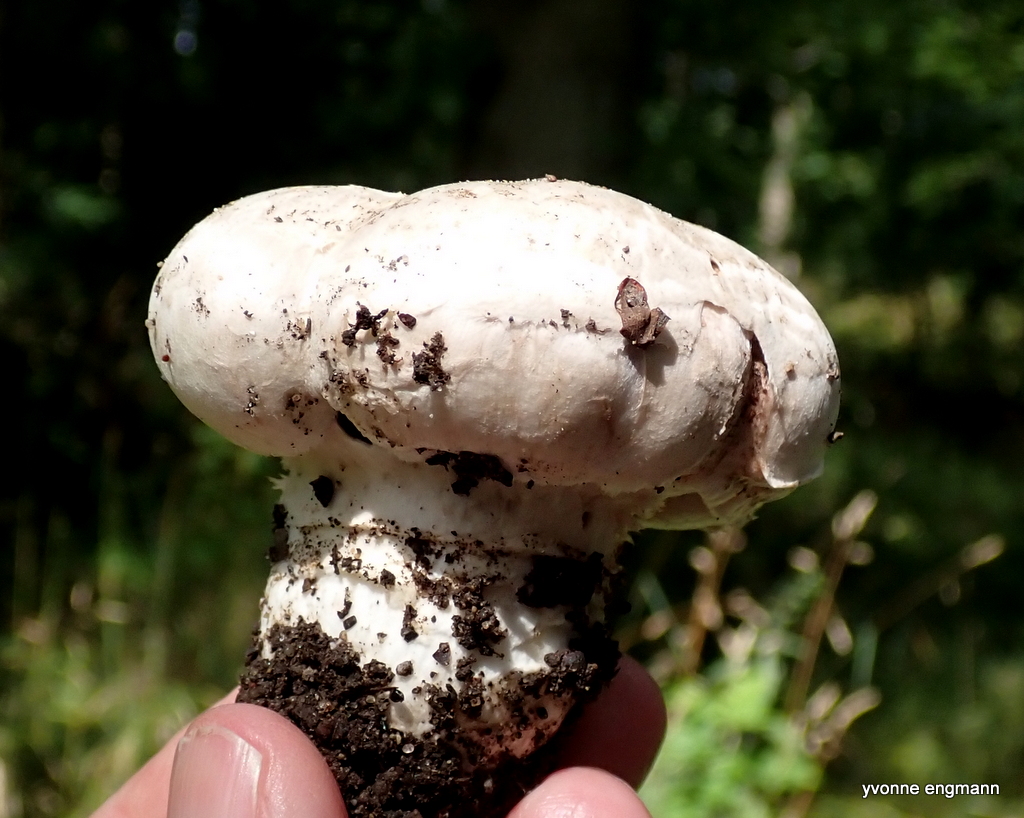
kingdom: Fungi
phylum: Basidiomycota
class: Agaricomycetes
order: Agaricales
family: Agaricaceae
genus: Agaricus
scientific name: Agaricus bitorquis
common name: vej-champignon
